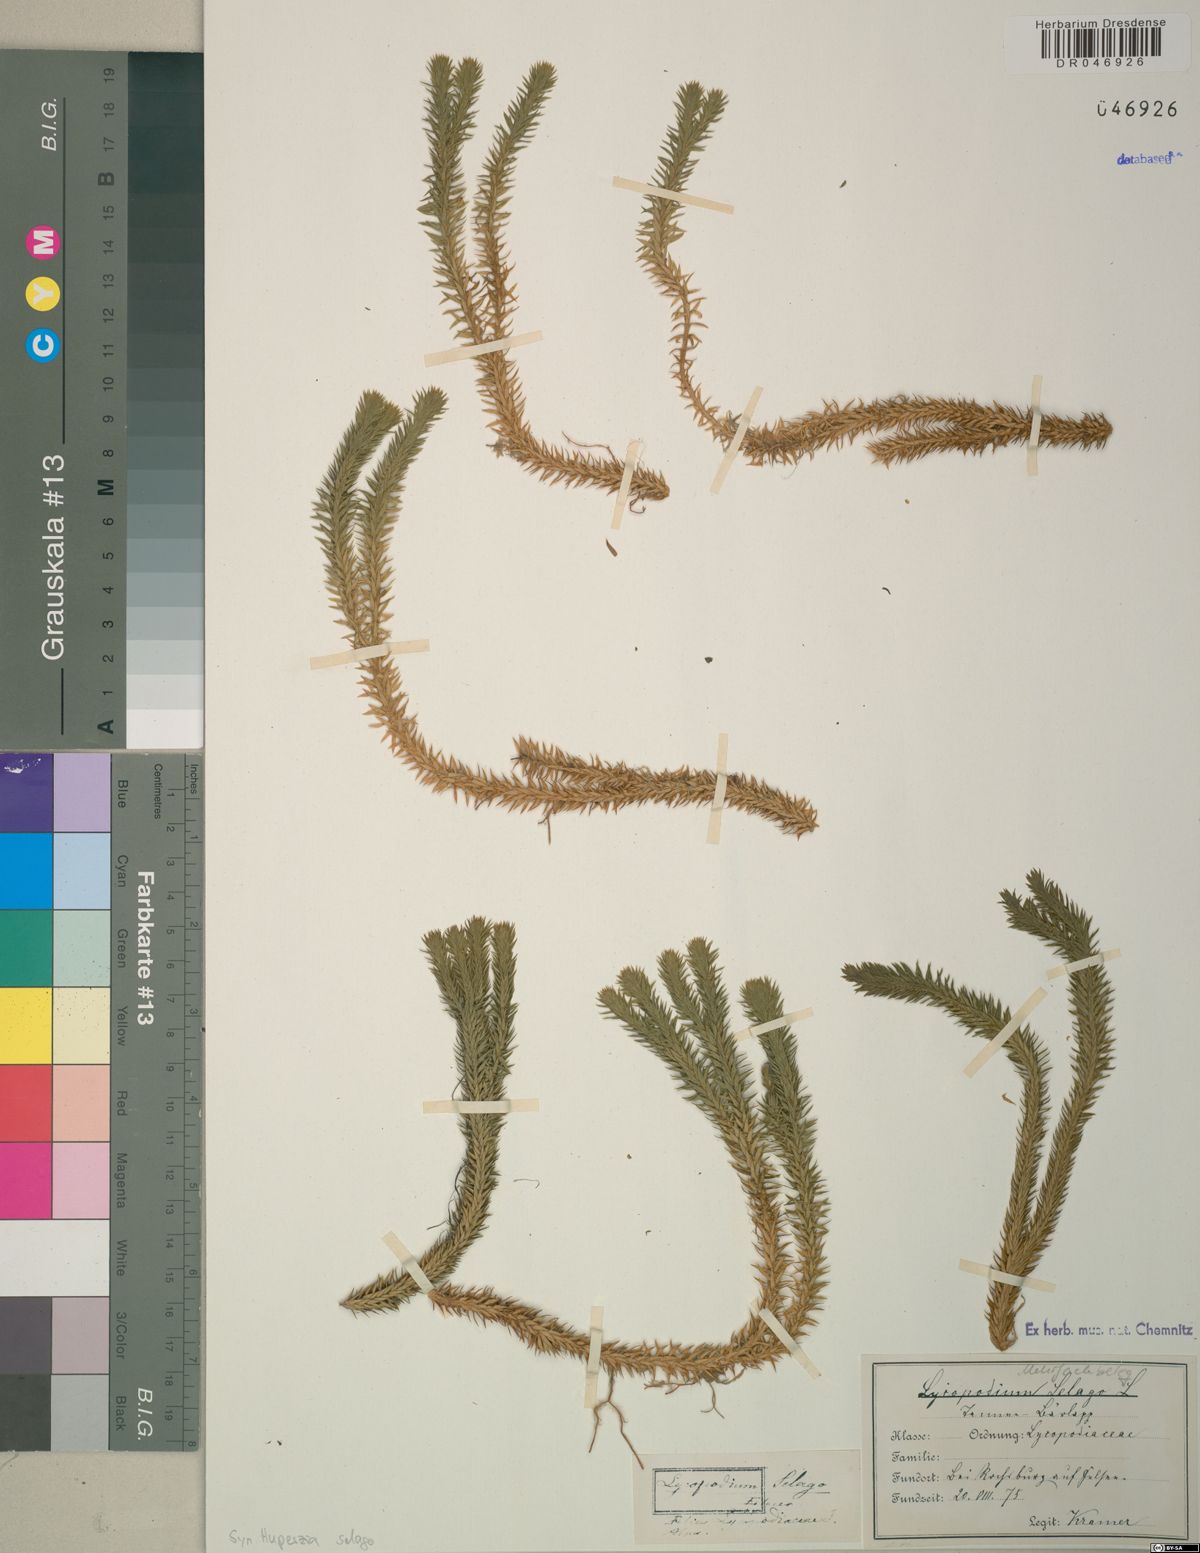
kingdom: Plantae
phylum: Tracheophyta
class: Lycopodiopsida
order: Lycopodiales
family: Lycopodiaceae
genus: Huperzia
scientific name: Huperzia selago
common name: Northern firmoss
